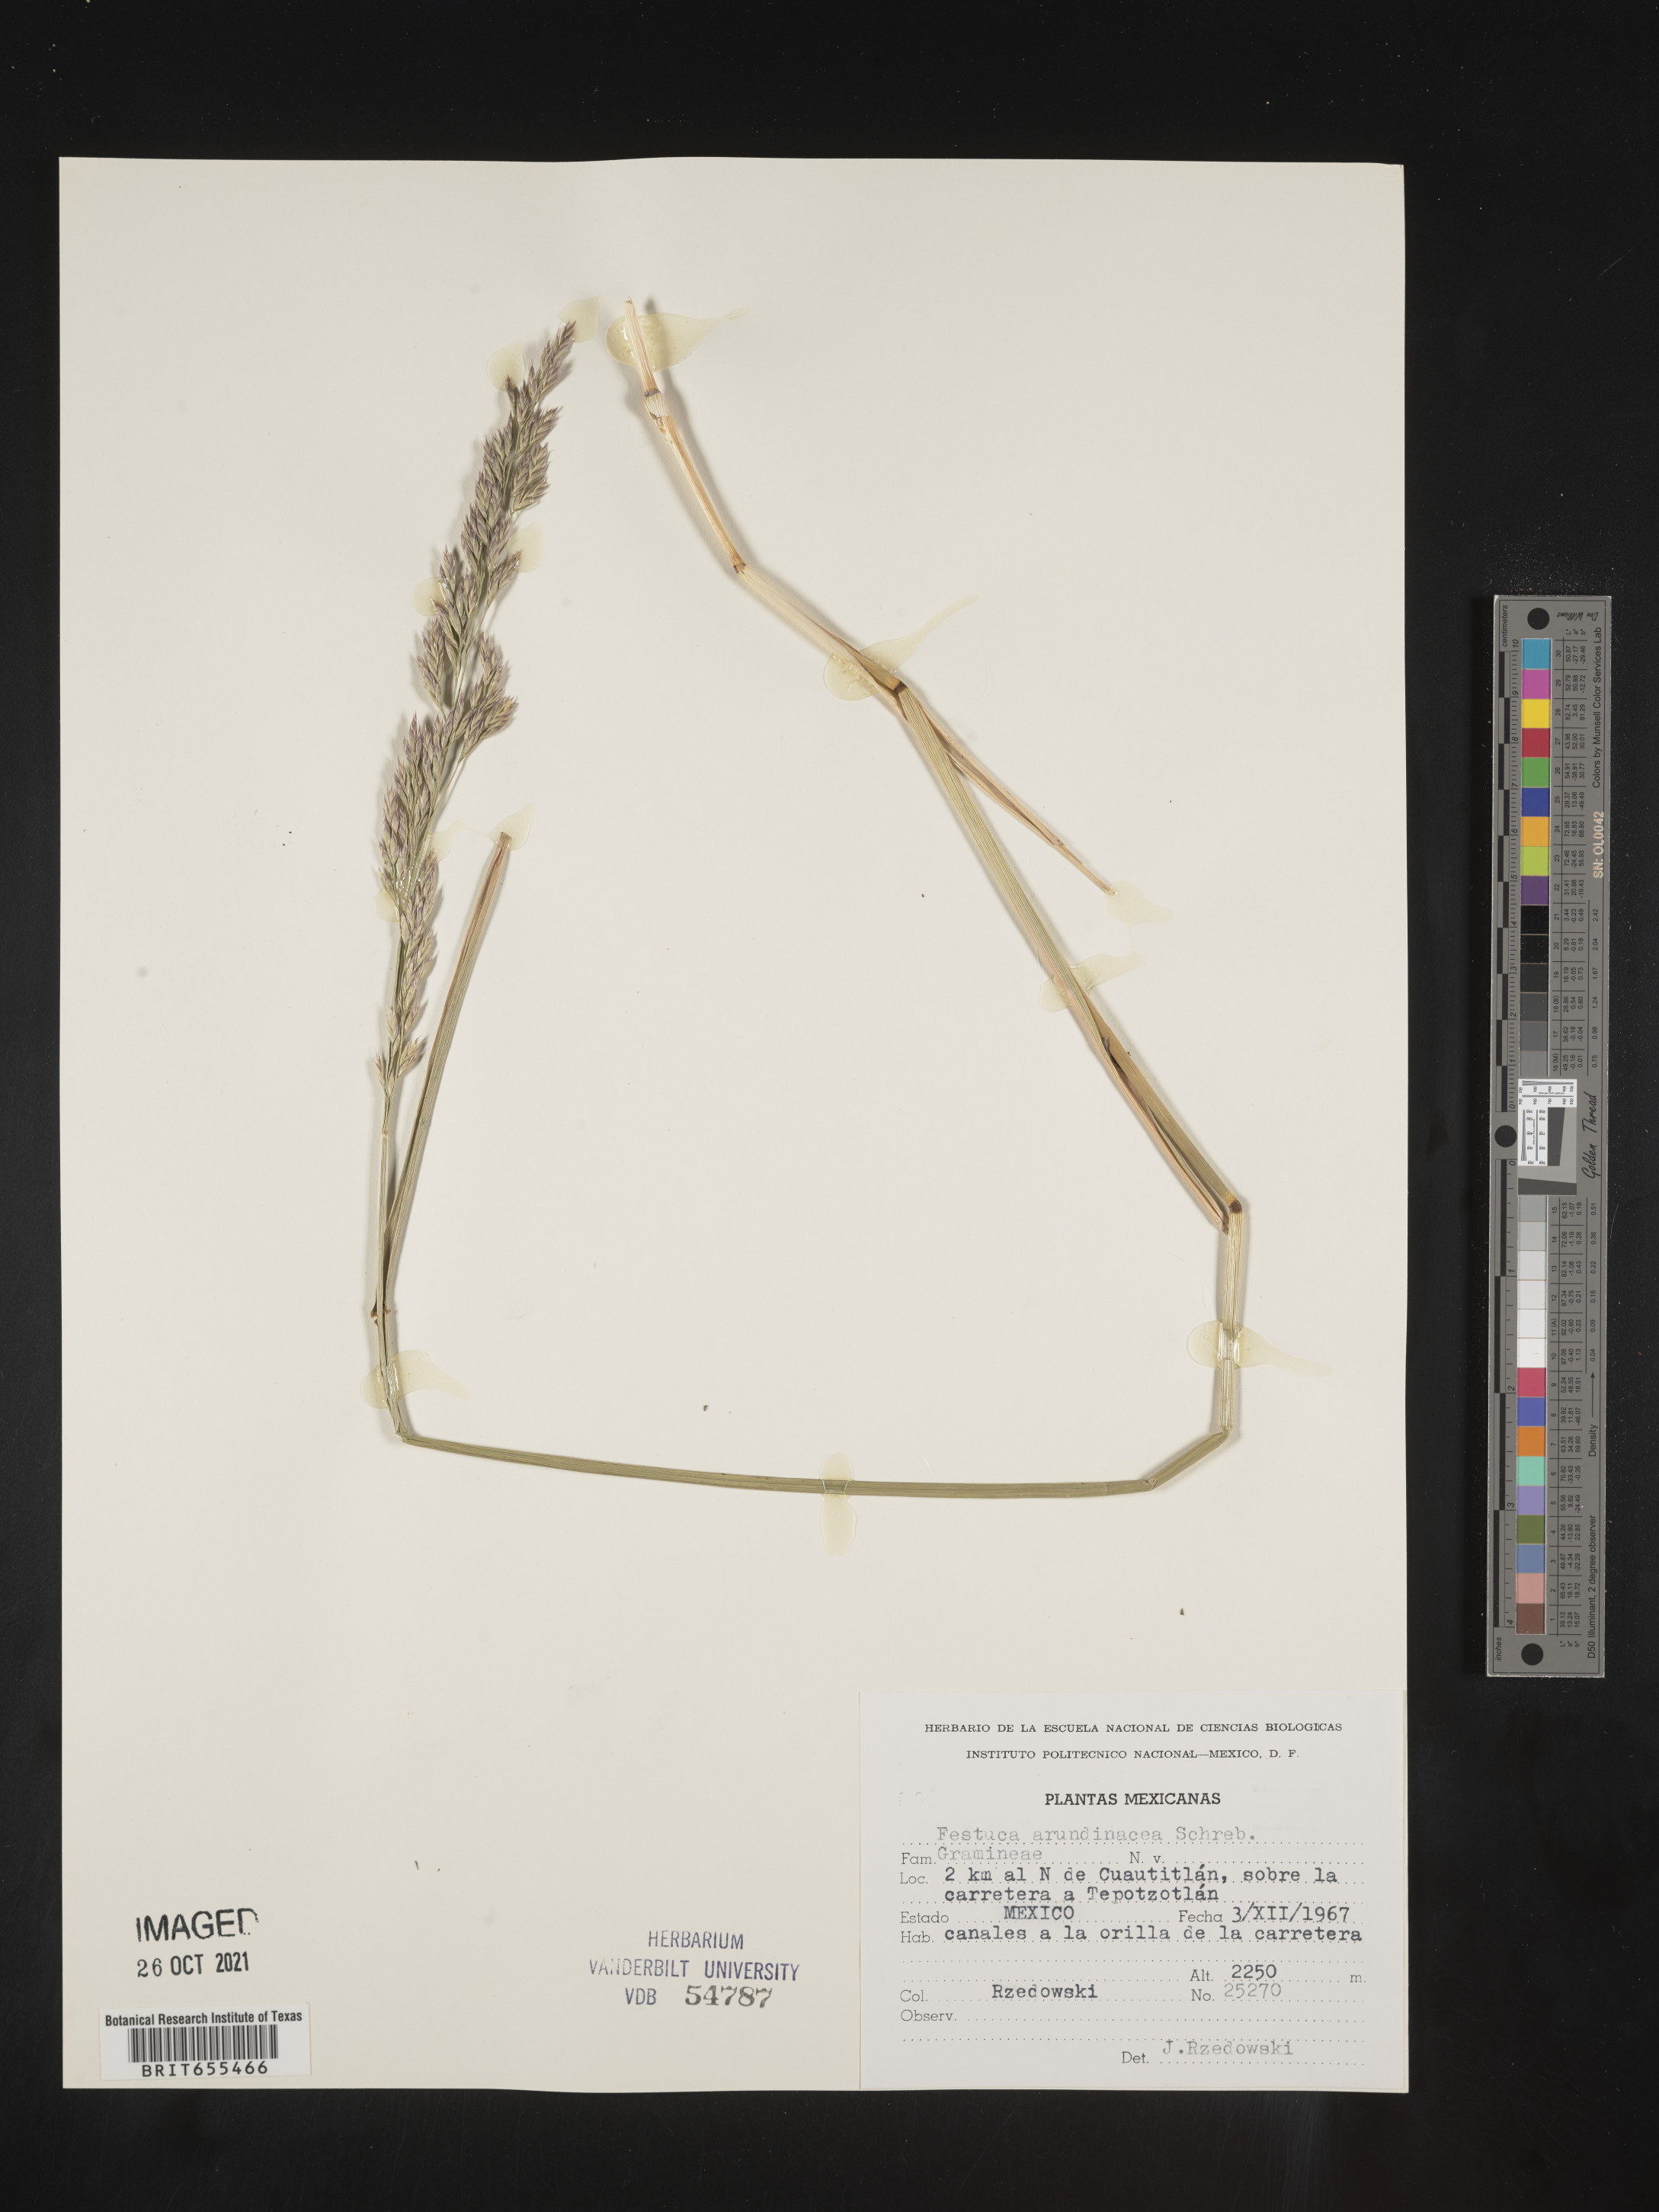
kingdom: Plantae
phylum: Tracheophyta
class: Liliopsida
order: Poales
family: Poaceae
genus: Festuca
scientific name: Festuca
